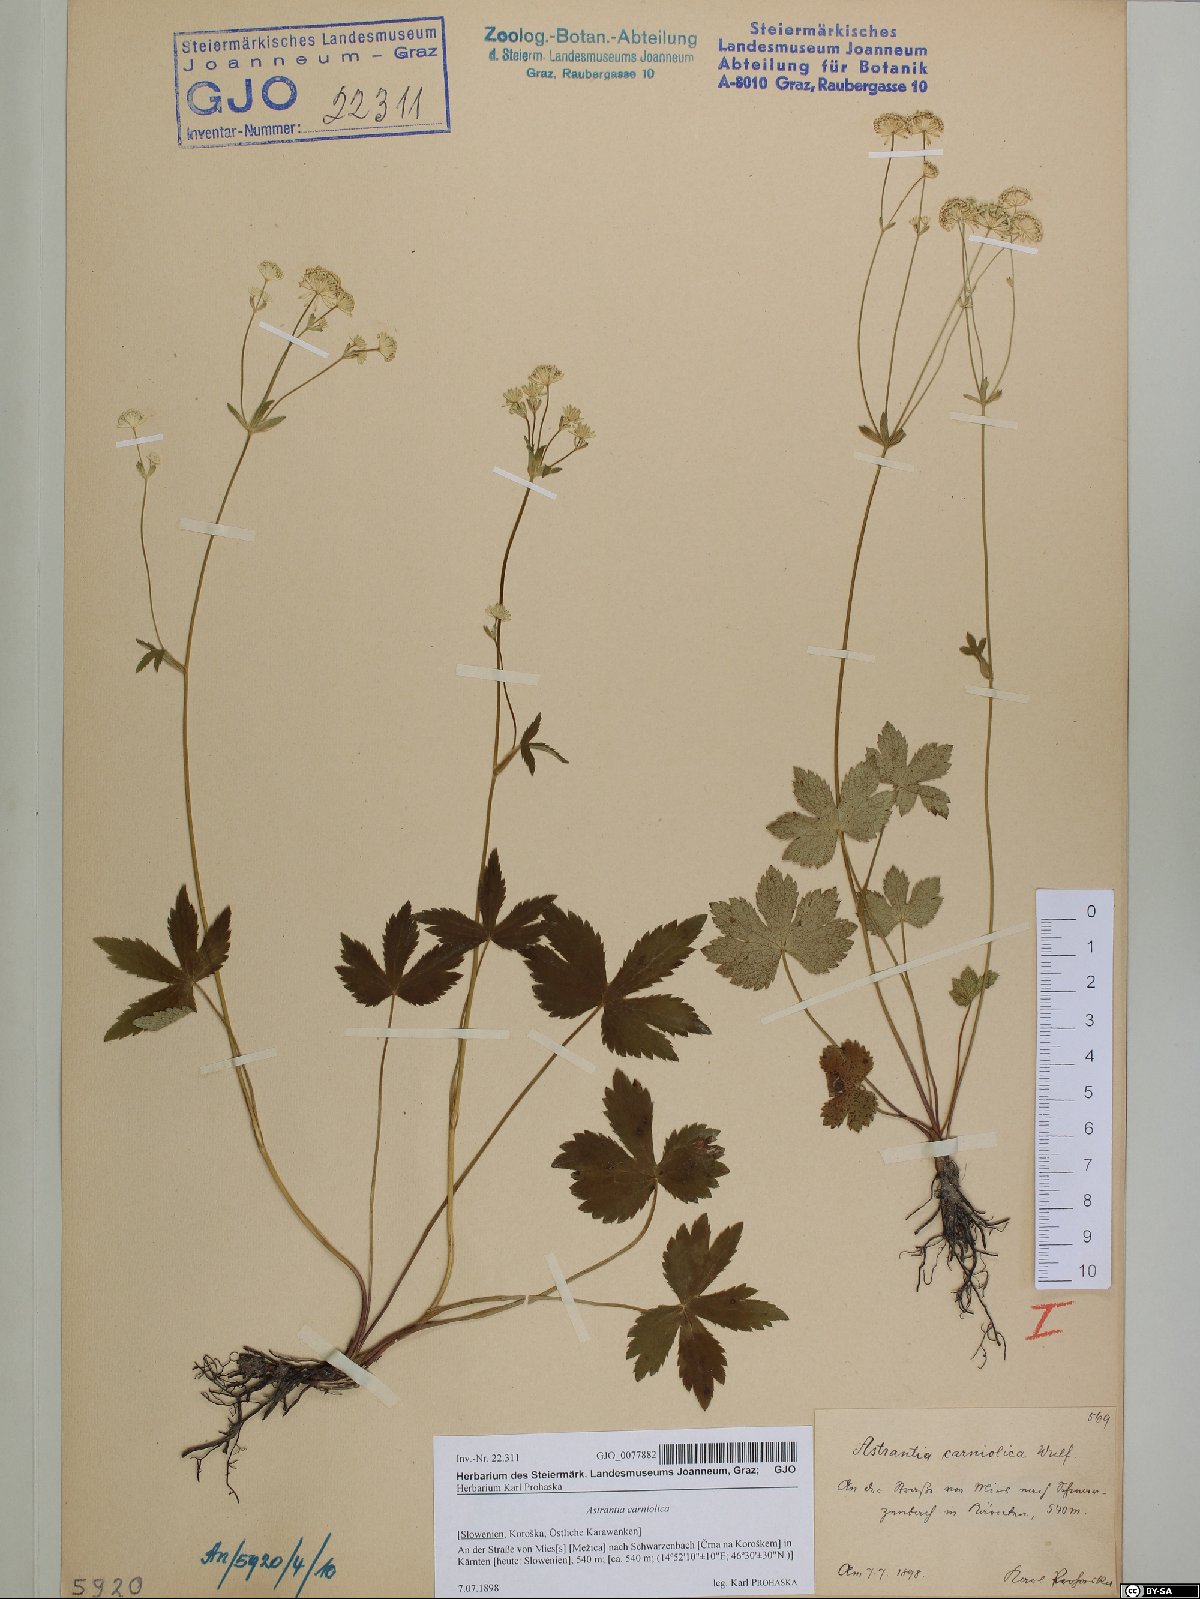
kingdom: Plantae
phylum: Tracheophyta
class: Magnoliopsida
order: Apiales
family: Apiaceae
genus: Astrantia
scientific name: Astrantia carniolica
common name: Carnic masterwort
